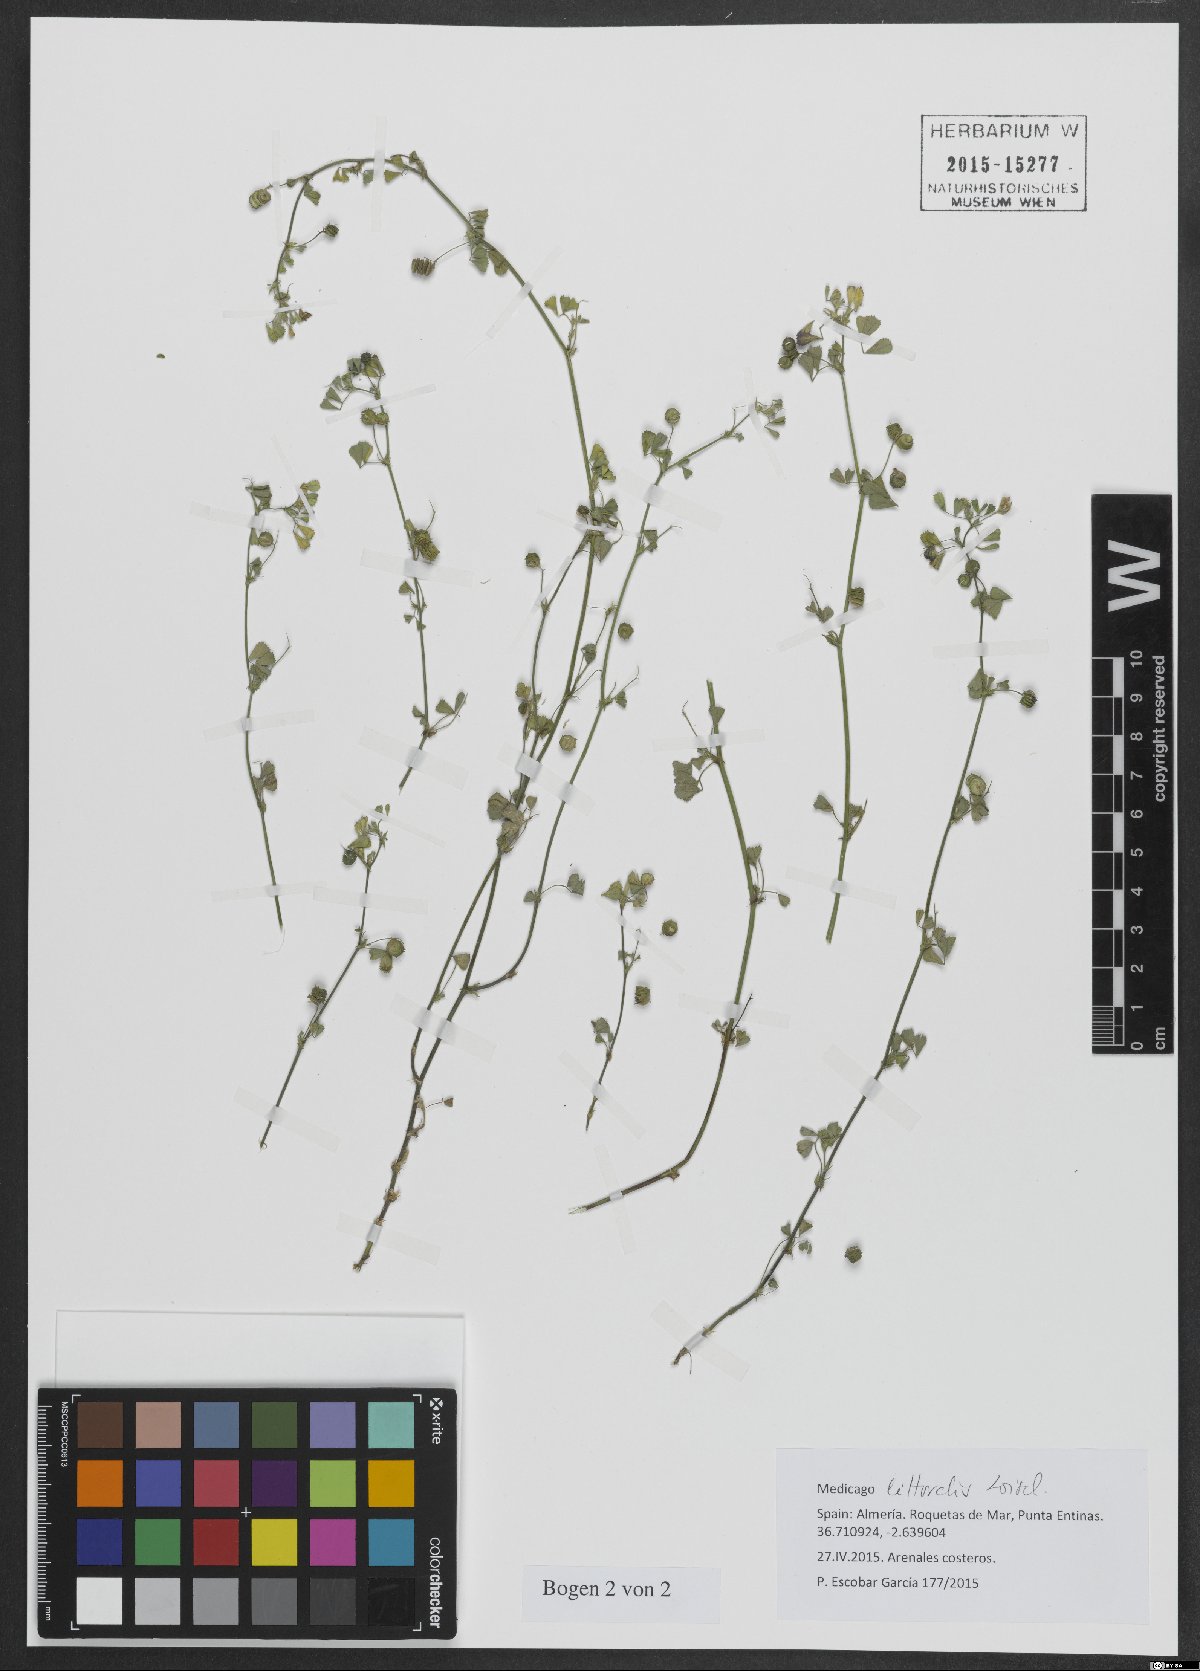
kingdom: Plantae
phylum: Tracheophyta
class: Magnoliopsida
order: Fabales
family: Fabaceae
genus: Medicago
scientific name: Medicago littoralis
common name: Shore medick
